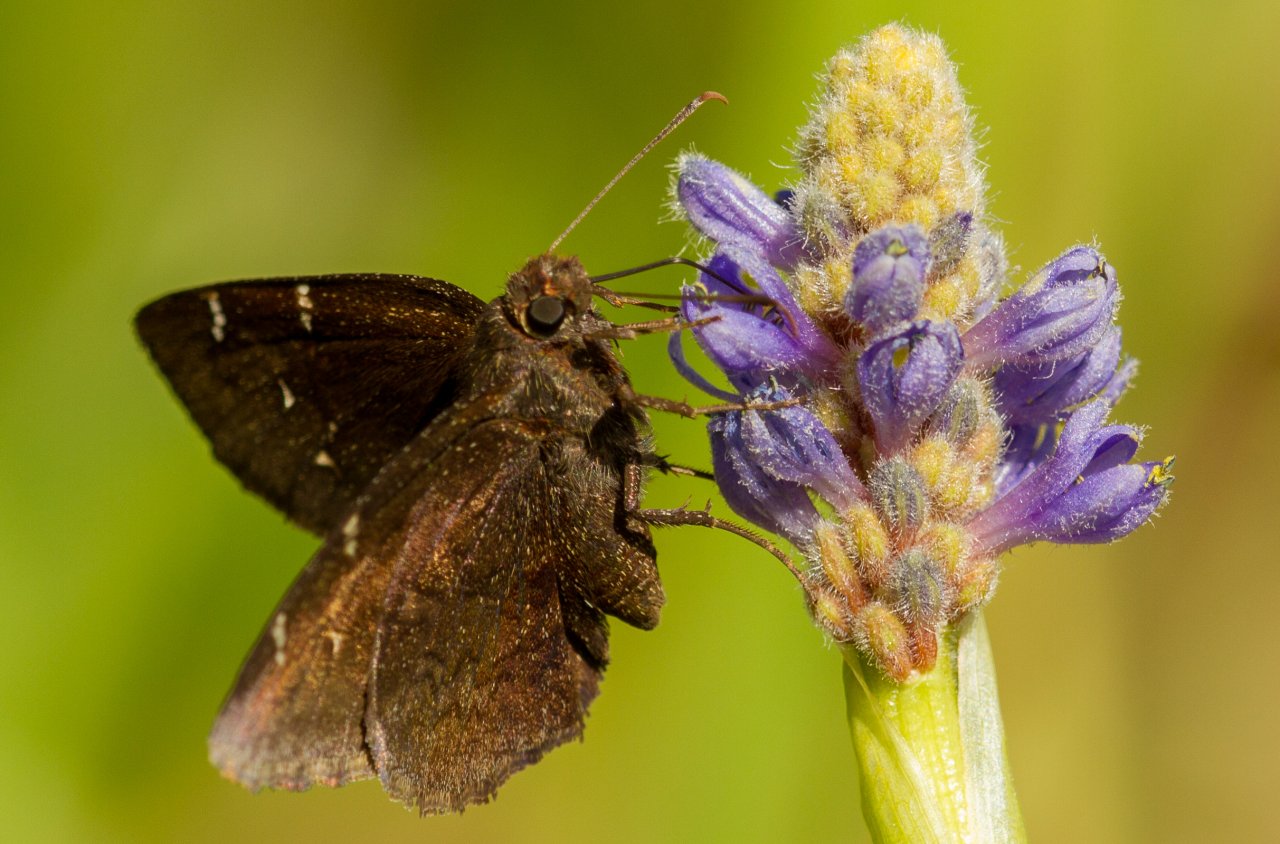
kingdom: Animalia
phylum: Arthropoda
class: Insecta
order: Lepidoptera
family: Hesperiidae
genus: Autochton
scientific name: Autochton
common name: Northern Cloudywing
